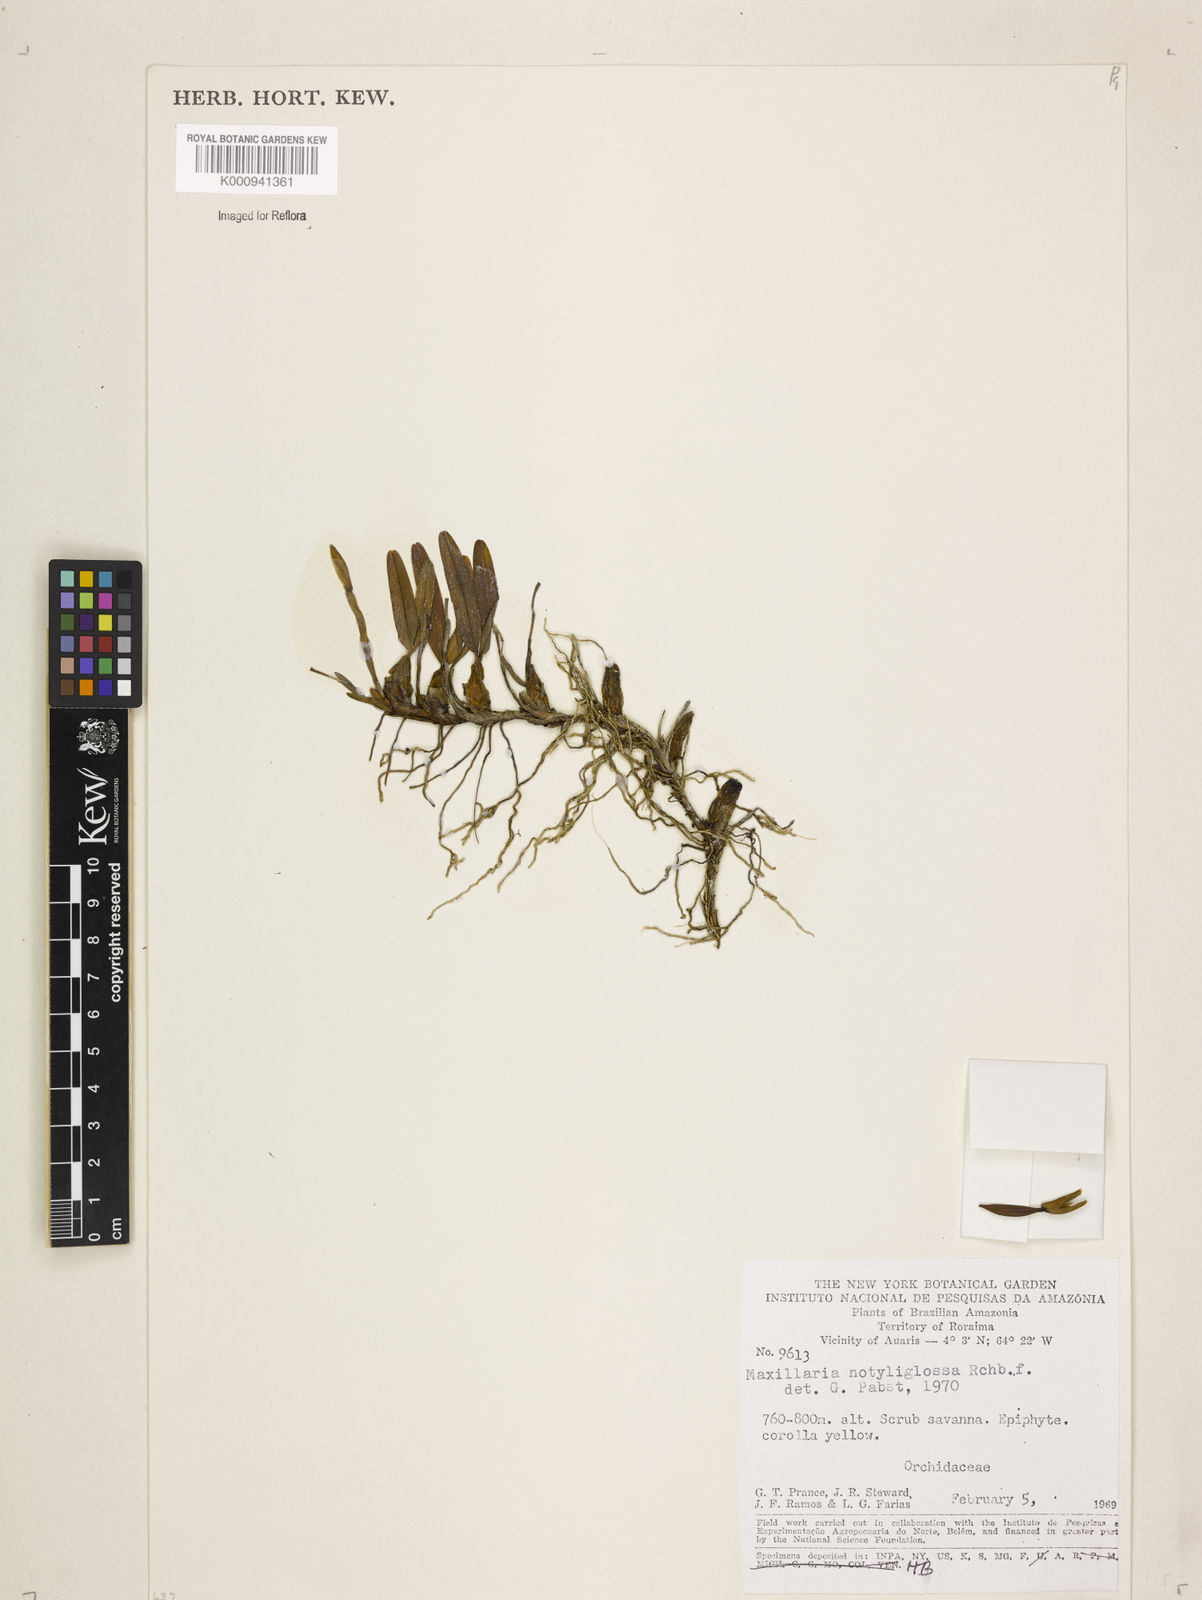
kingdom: Plantae
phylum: Tracheophyta
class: Liliopsida
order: Asparagales
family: Orchidaceae
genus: Maxillaria
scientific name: Maxillaria notylioglossa
